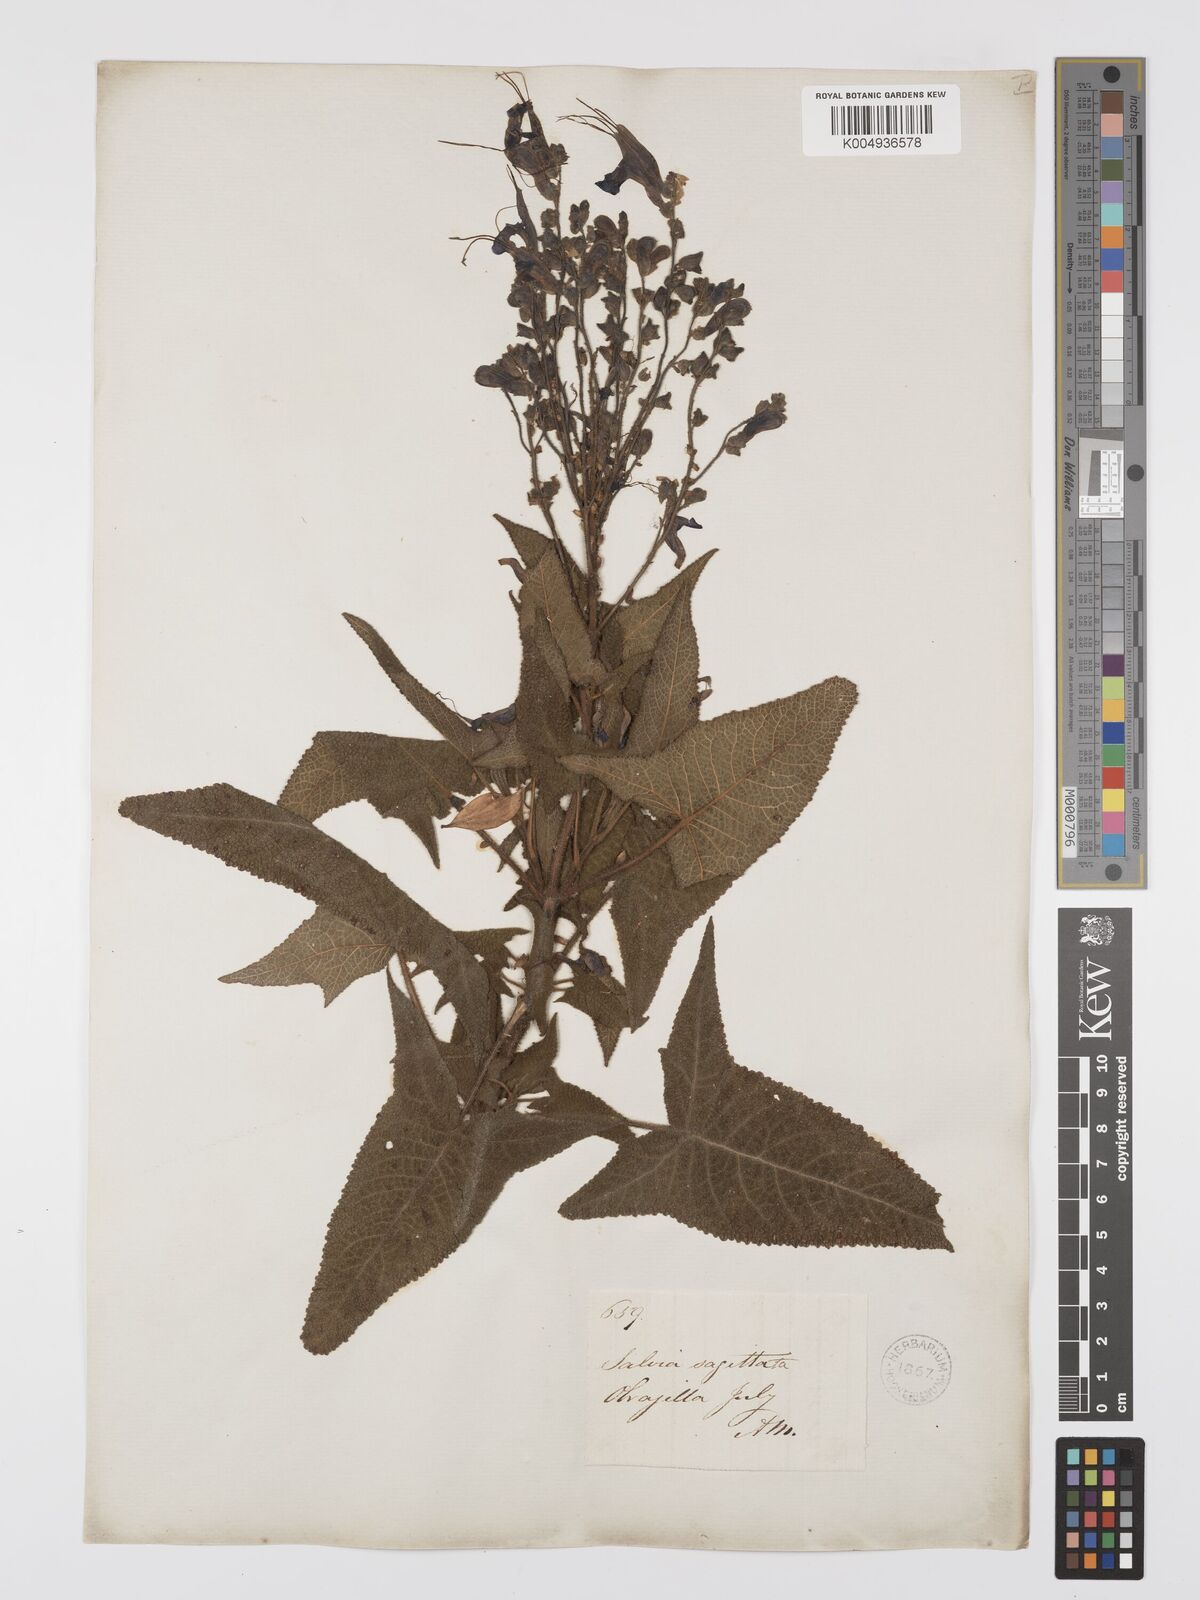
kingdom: Plantae
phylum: Tracheophyta
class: Magnoliopsida
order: Lamiales
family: Lamiaceae
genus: Salvia
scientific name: Salvia sagittata
